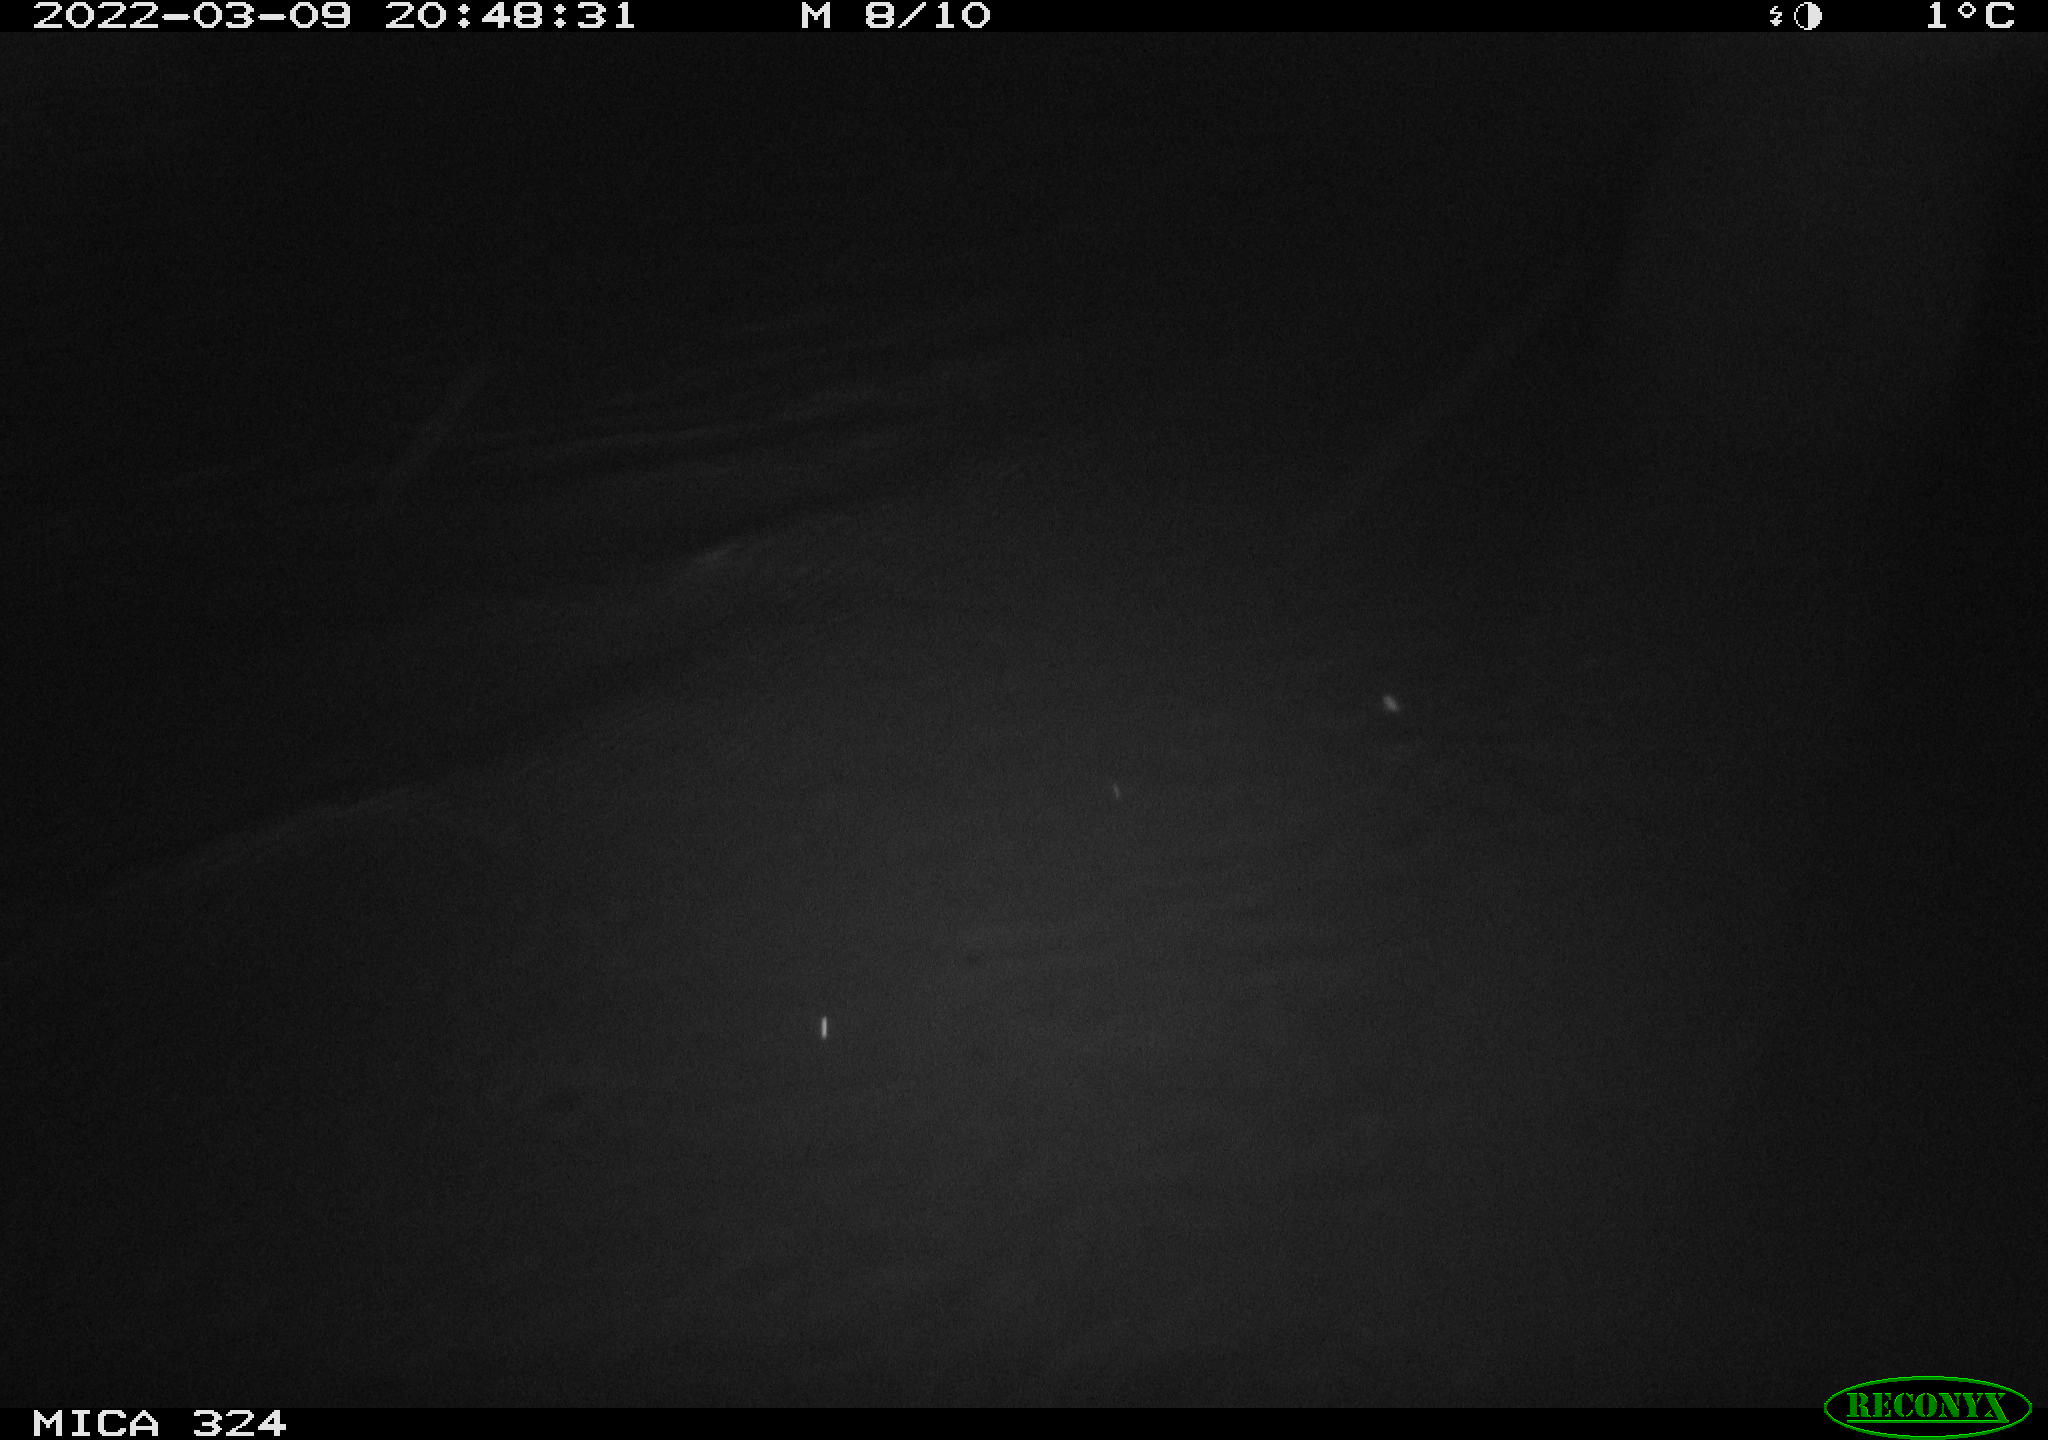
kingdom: Animalia
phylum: Chordata
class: Aves
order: Anseriformes
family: Anatidae
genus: Anas
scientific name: Anas platyrhynchos
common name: Mallard
